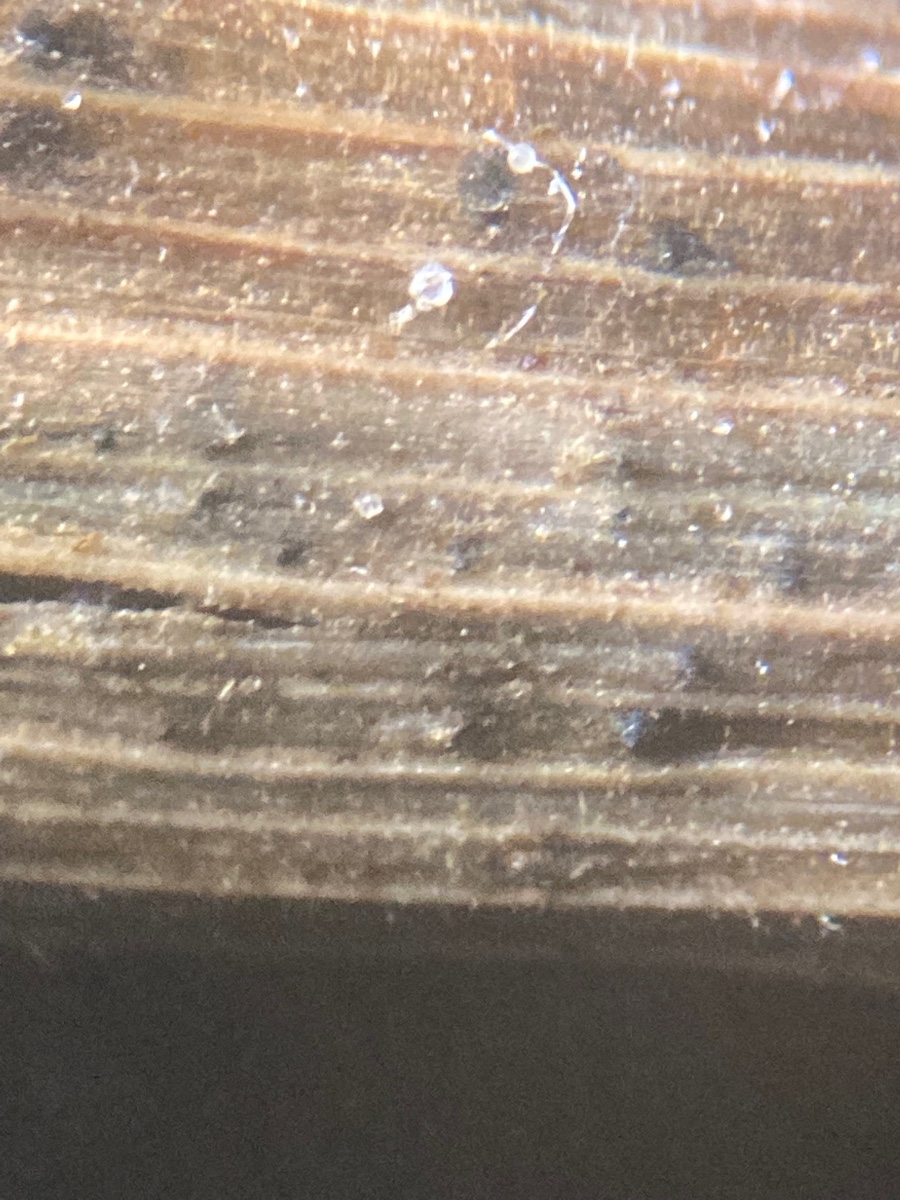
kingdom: Fungi
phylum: Ascomycota
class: Dothideomycetes
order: Pleosporales
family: Phaeosphaeriaceae
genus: Phaeosphaeria
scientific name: Phaeosphaeria fuckelii
